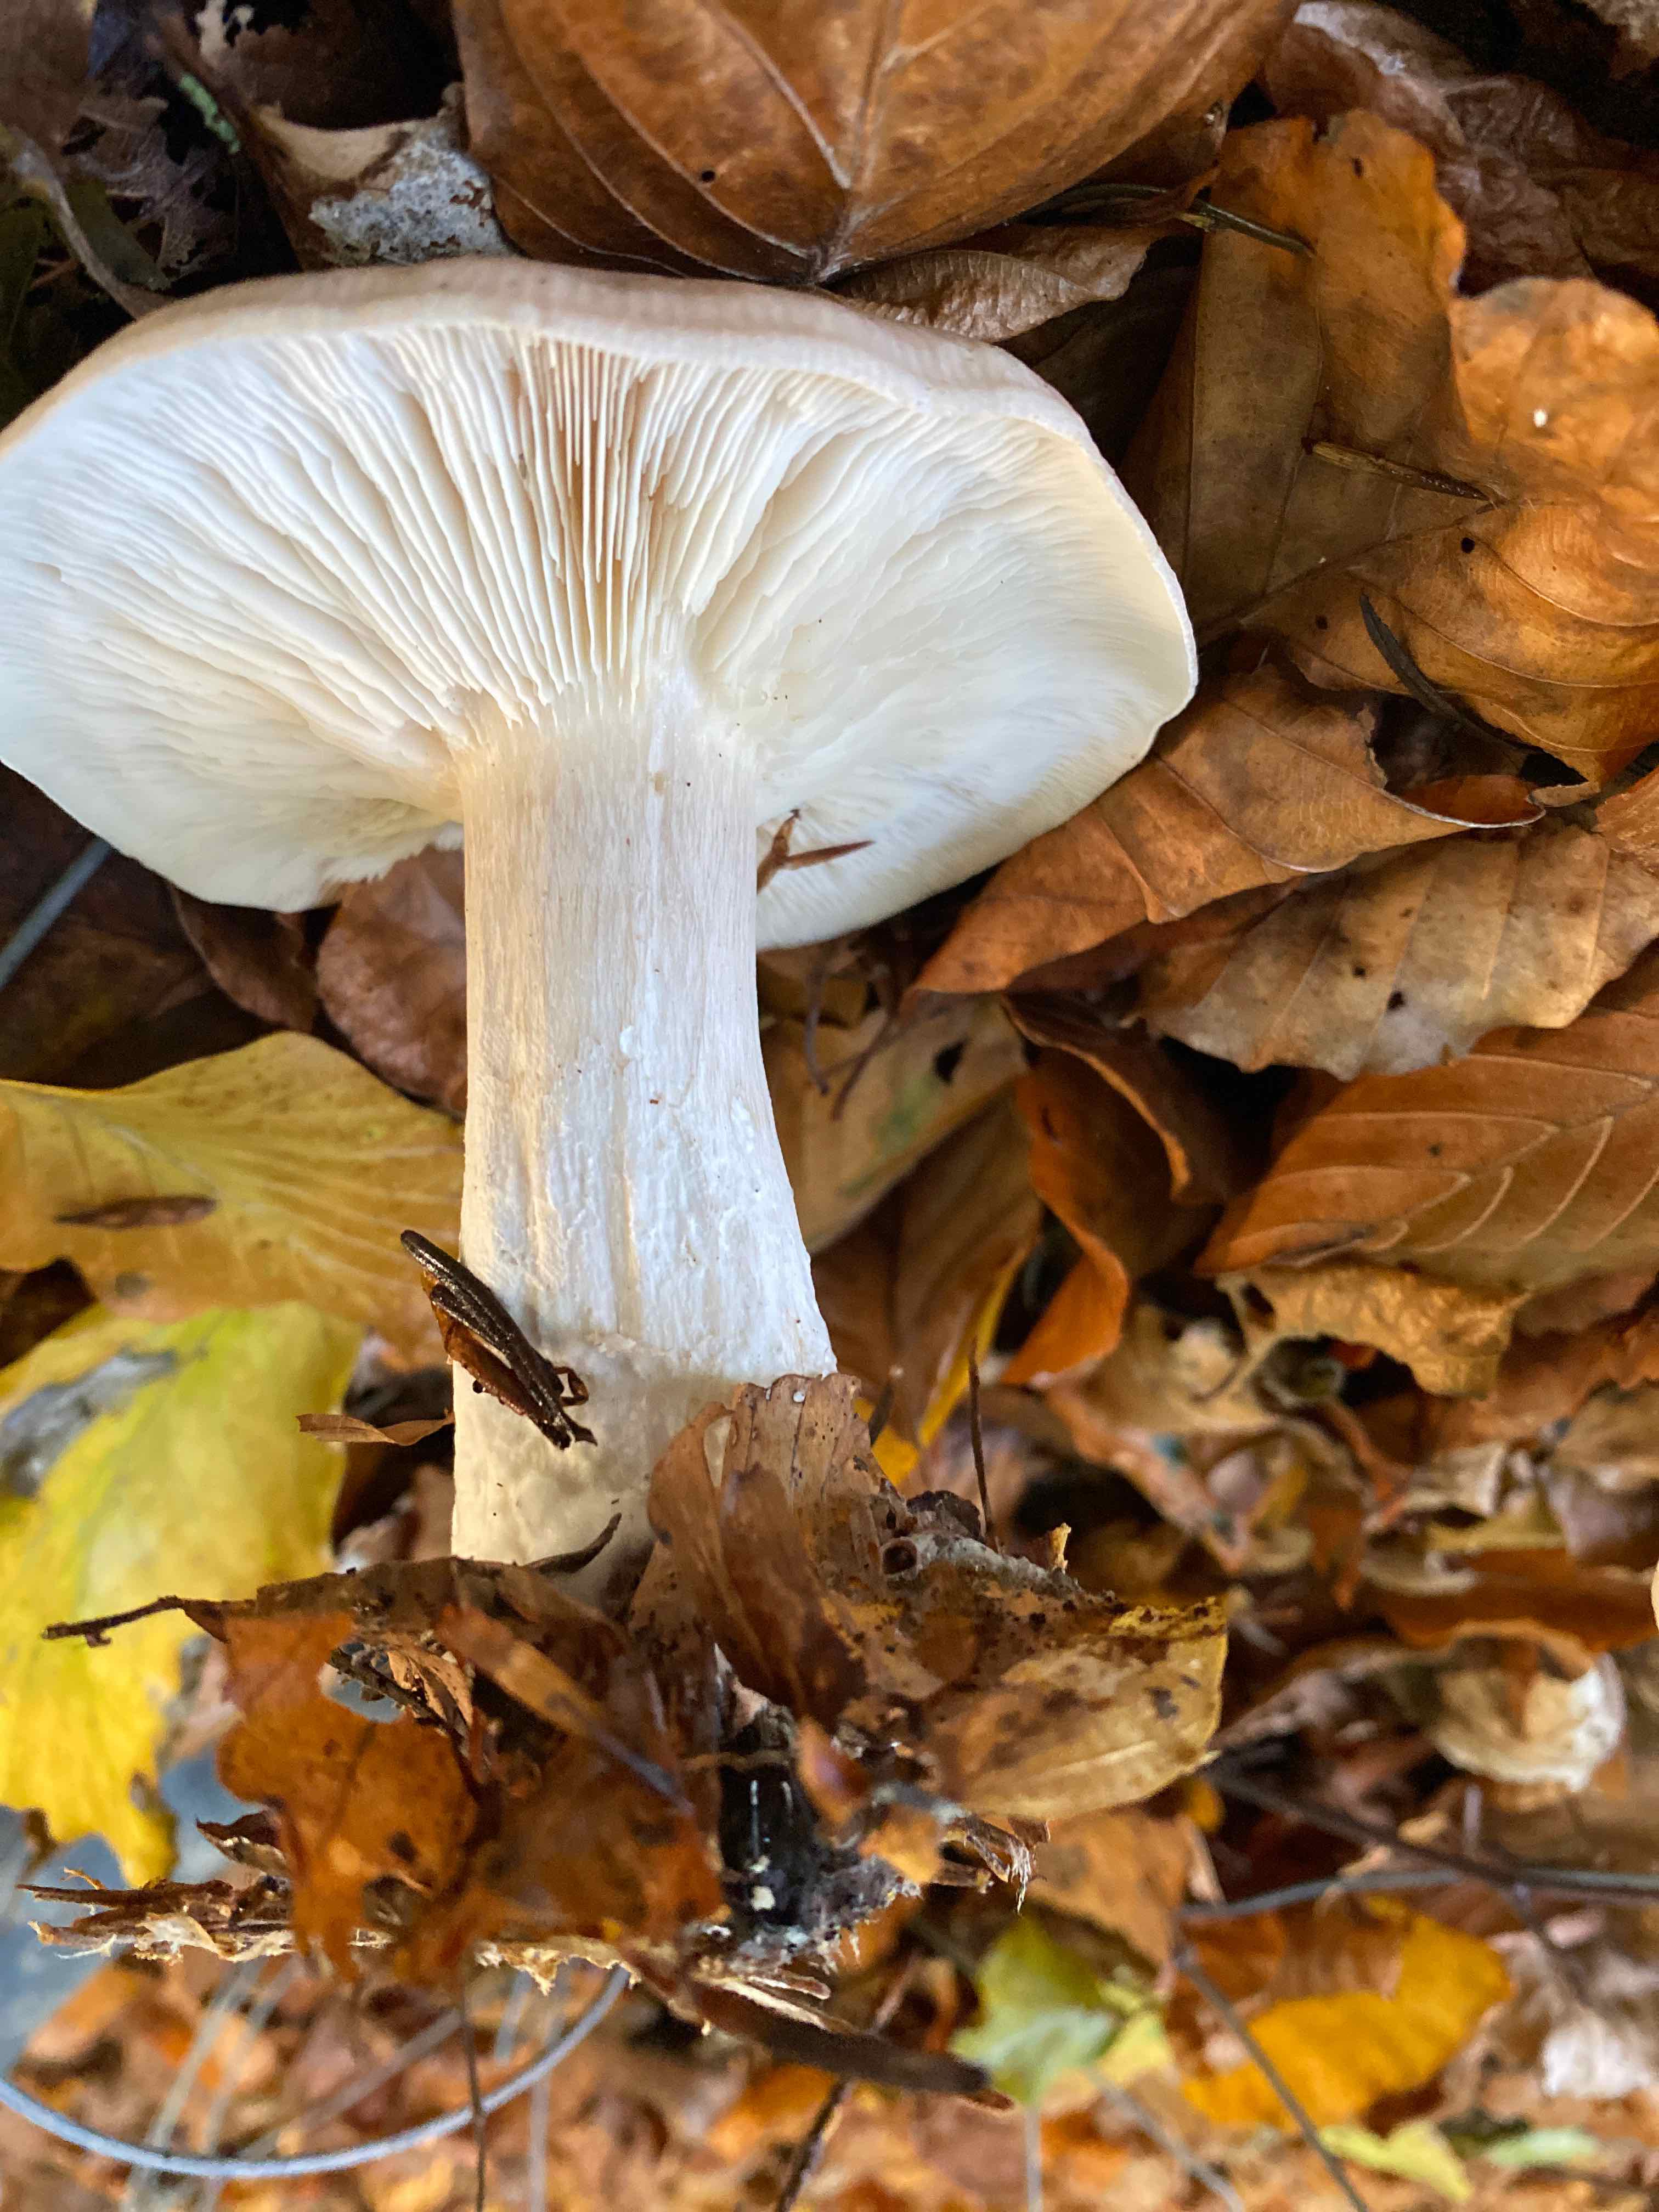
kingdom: Fungi
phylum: Basidiomycota
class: Agaricomycetes
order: Agaricales
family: Tricholomataceae
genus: Clitocybe
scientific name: Clitocybe nebularis
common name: tåge-tragthat
